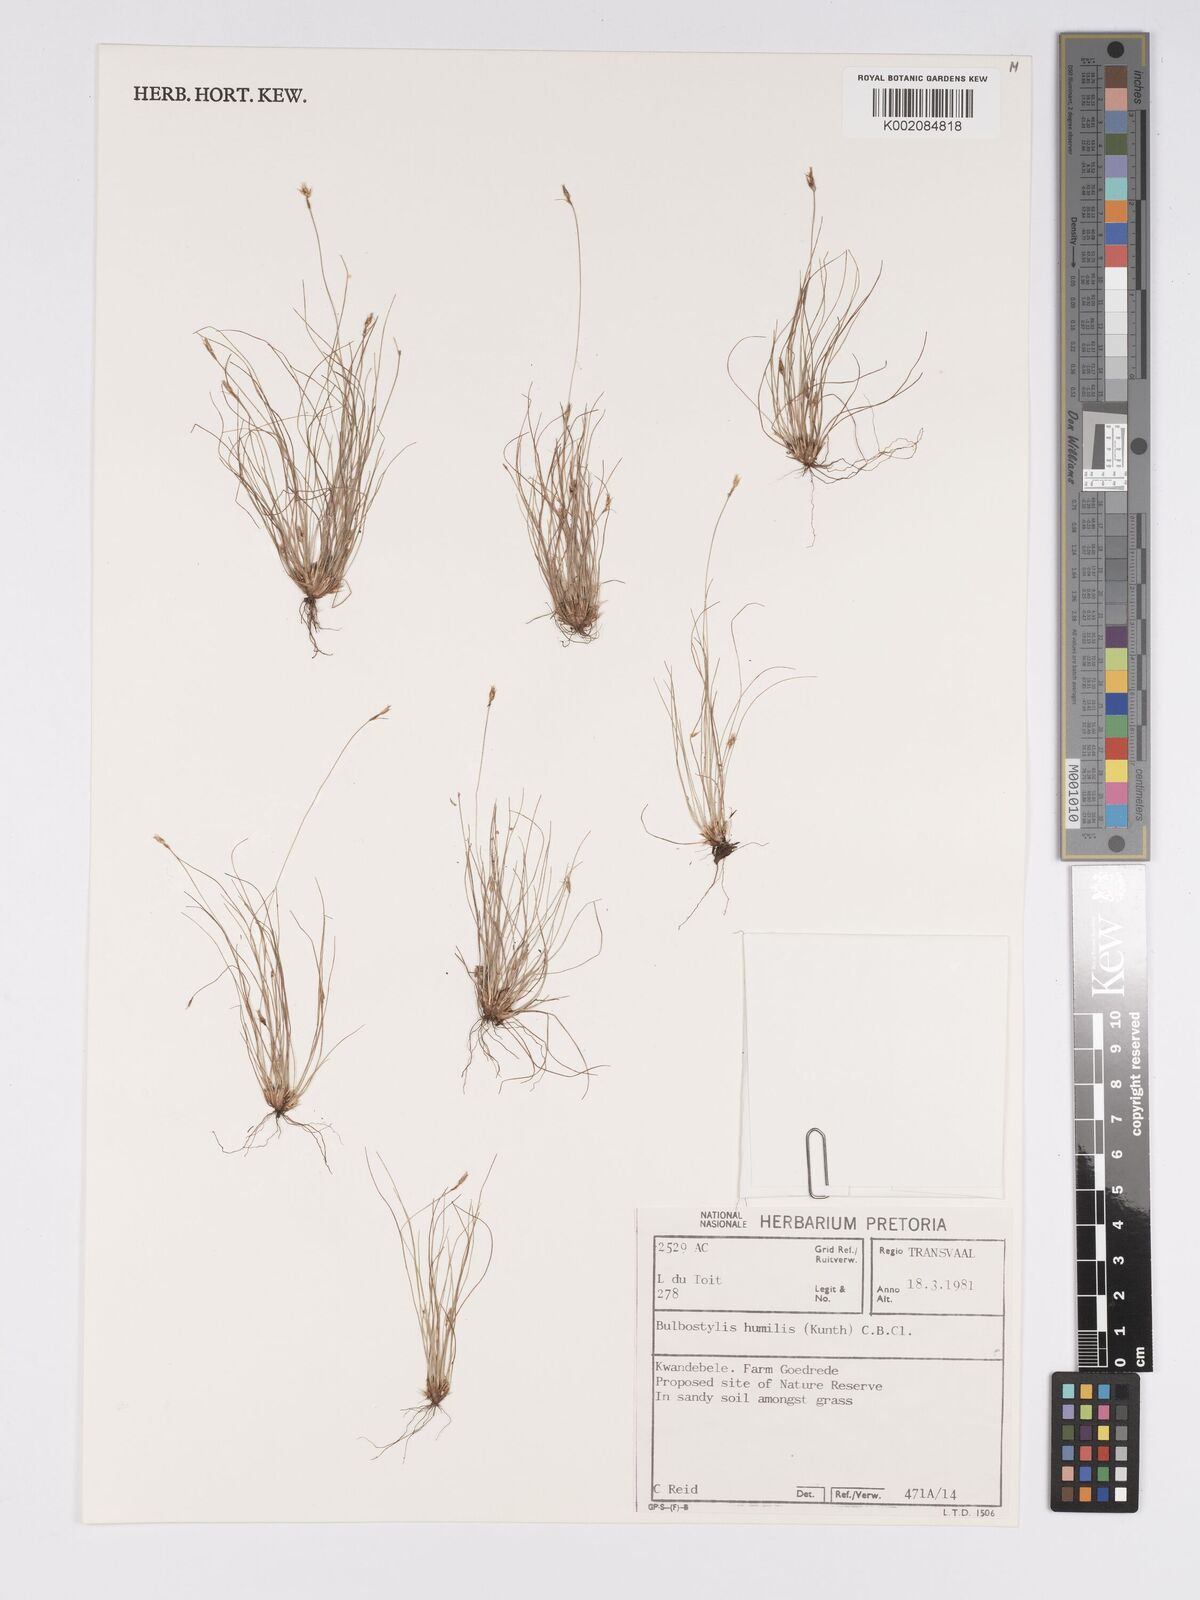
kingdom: Plantae
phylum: Tracheophyta
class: Liliopsida
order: Poales
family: Cyperaceae
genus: Bulbostylis
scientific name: Bulbostylis humilis
